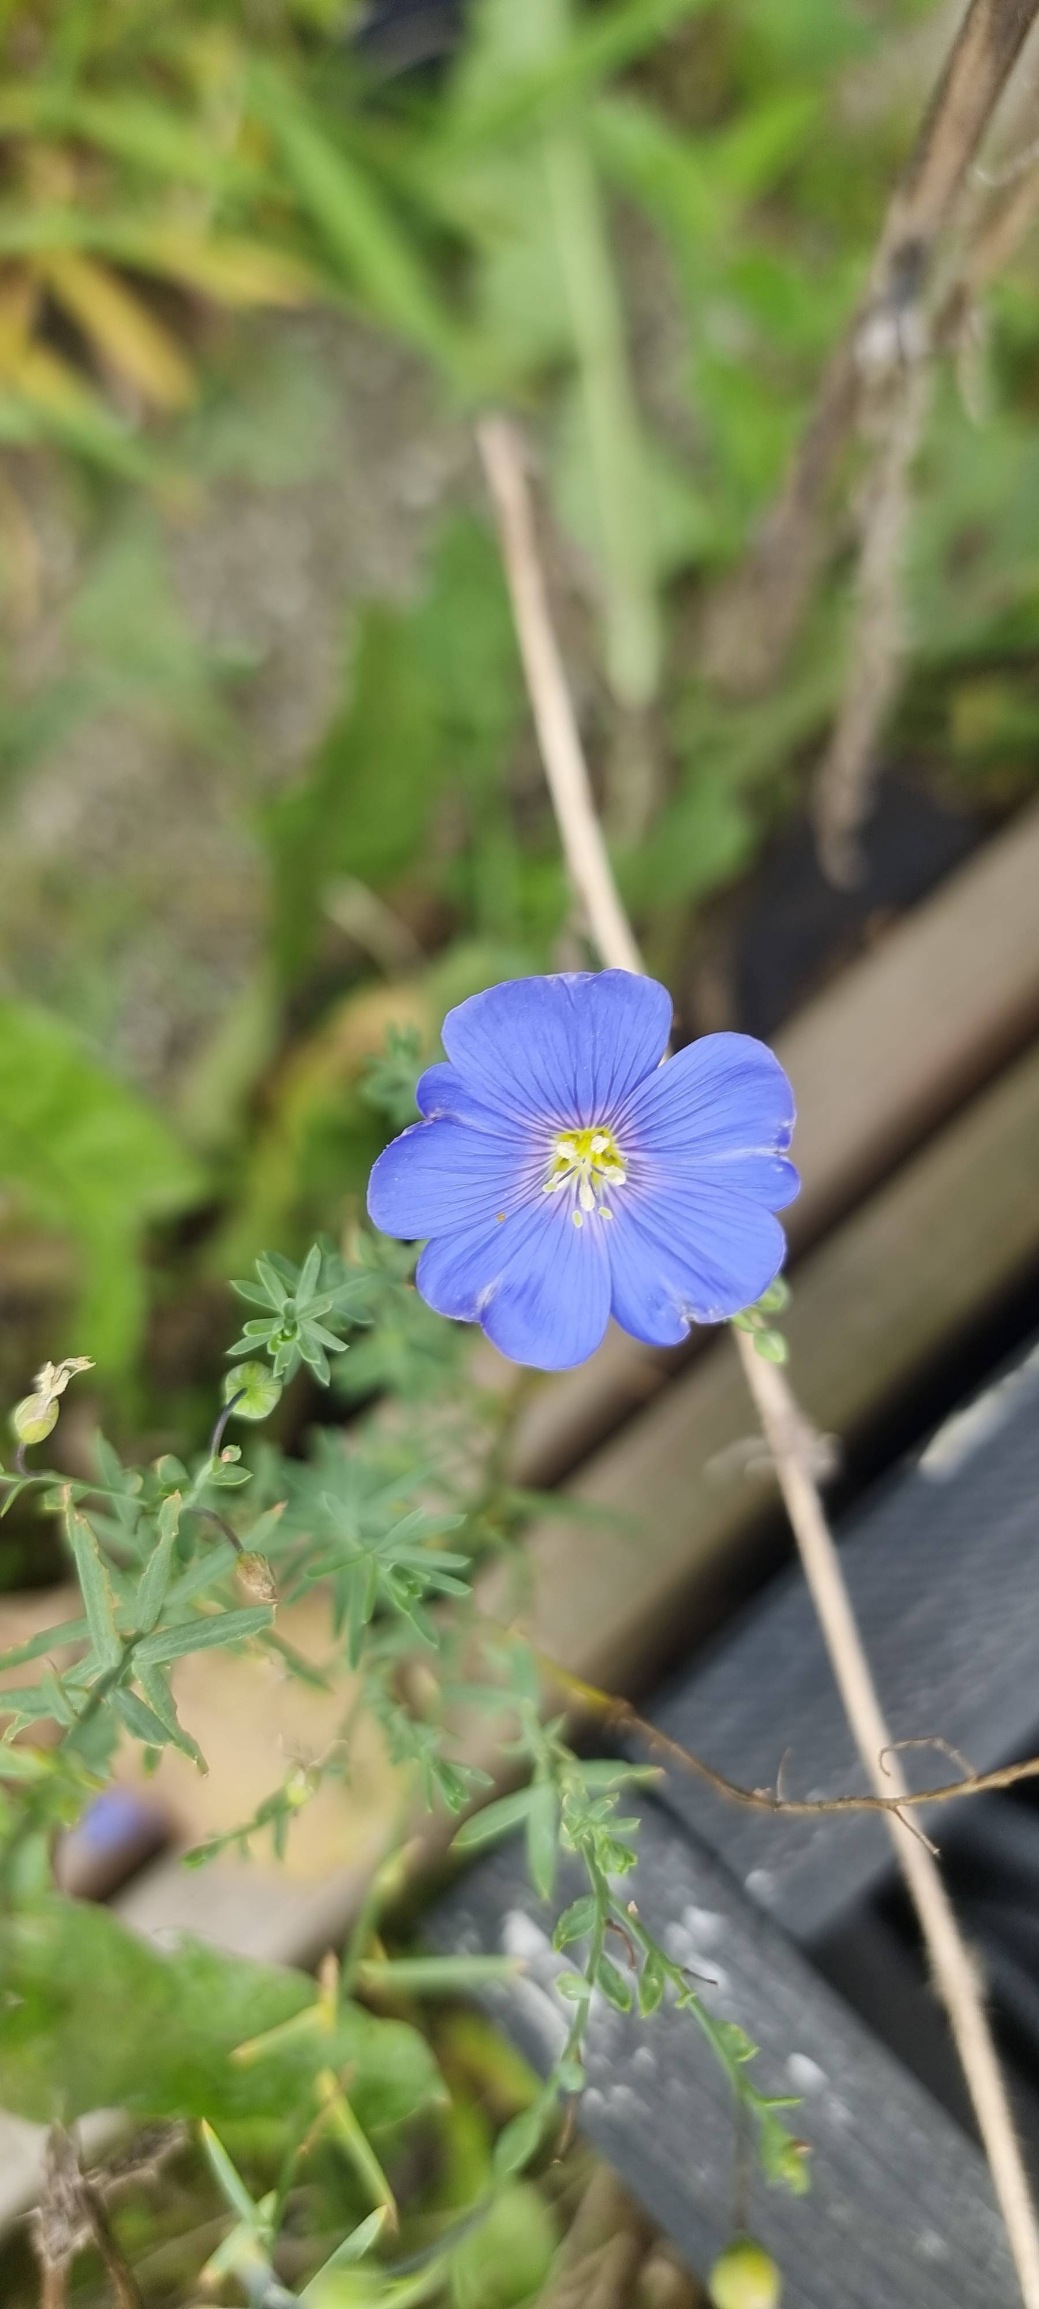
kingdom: Plantae
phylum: Tracheophyta
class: Magnoliopsida
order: Malpighiales
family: Linaceae
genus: Linum
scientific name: Linum
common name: Hørslægten
